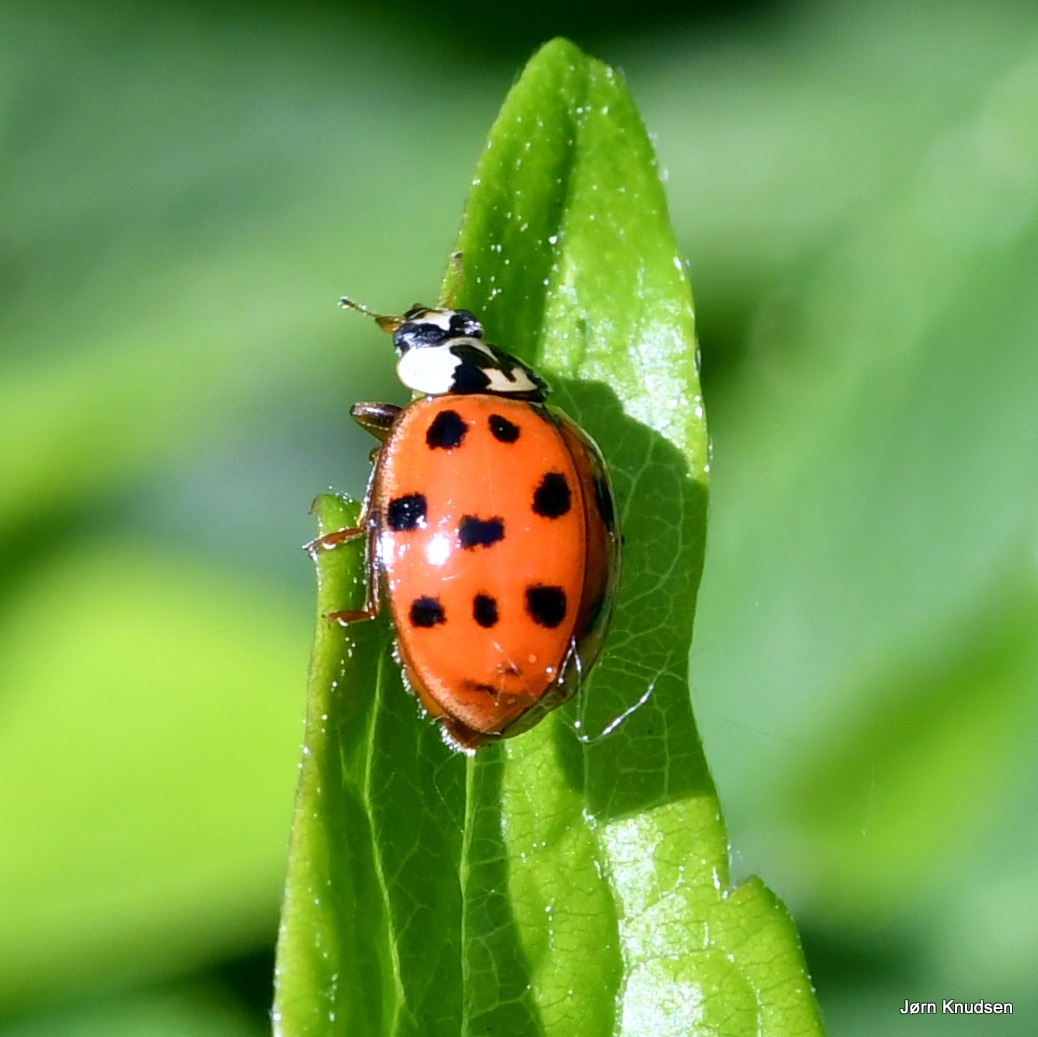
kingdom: Animalia
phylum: Arthropoda
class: Insecta
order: Coleoptera
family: Coccinellidae
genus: Harmonia
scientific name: Harmonia axyridis
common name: Harlekinmariehøne
